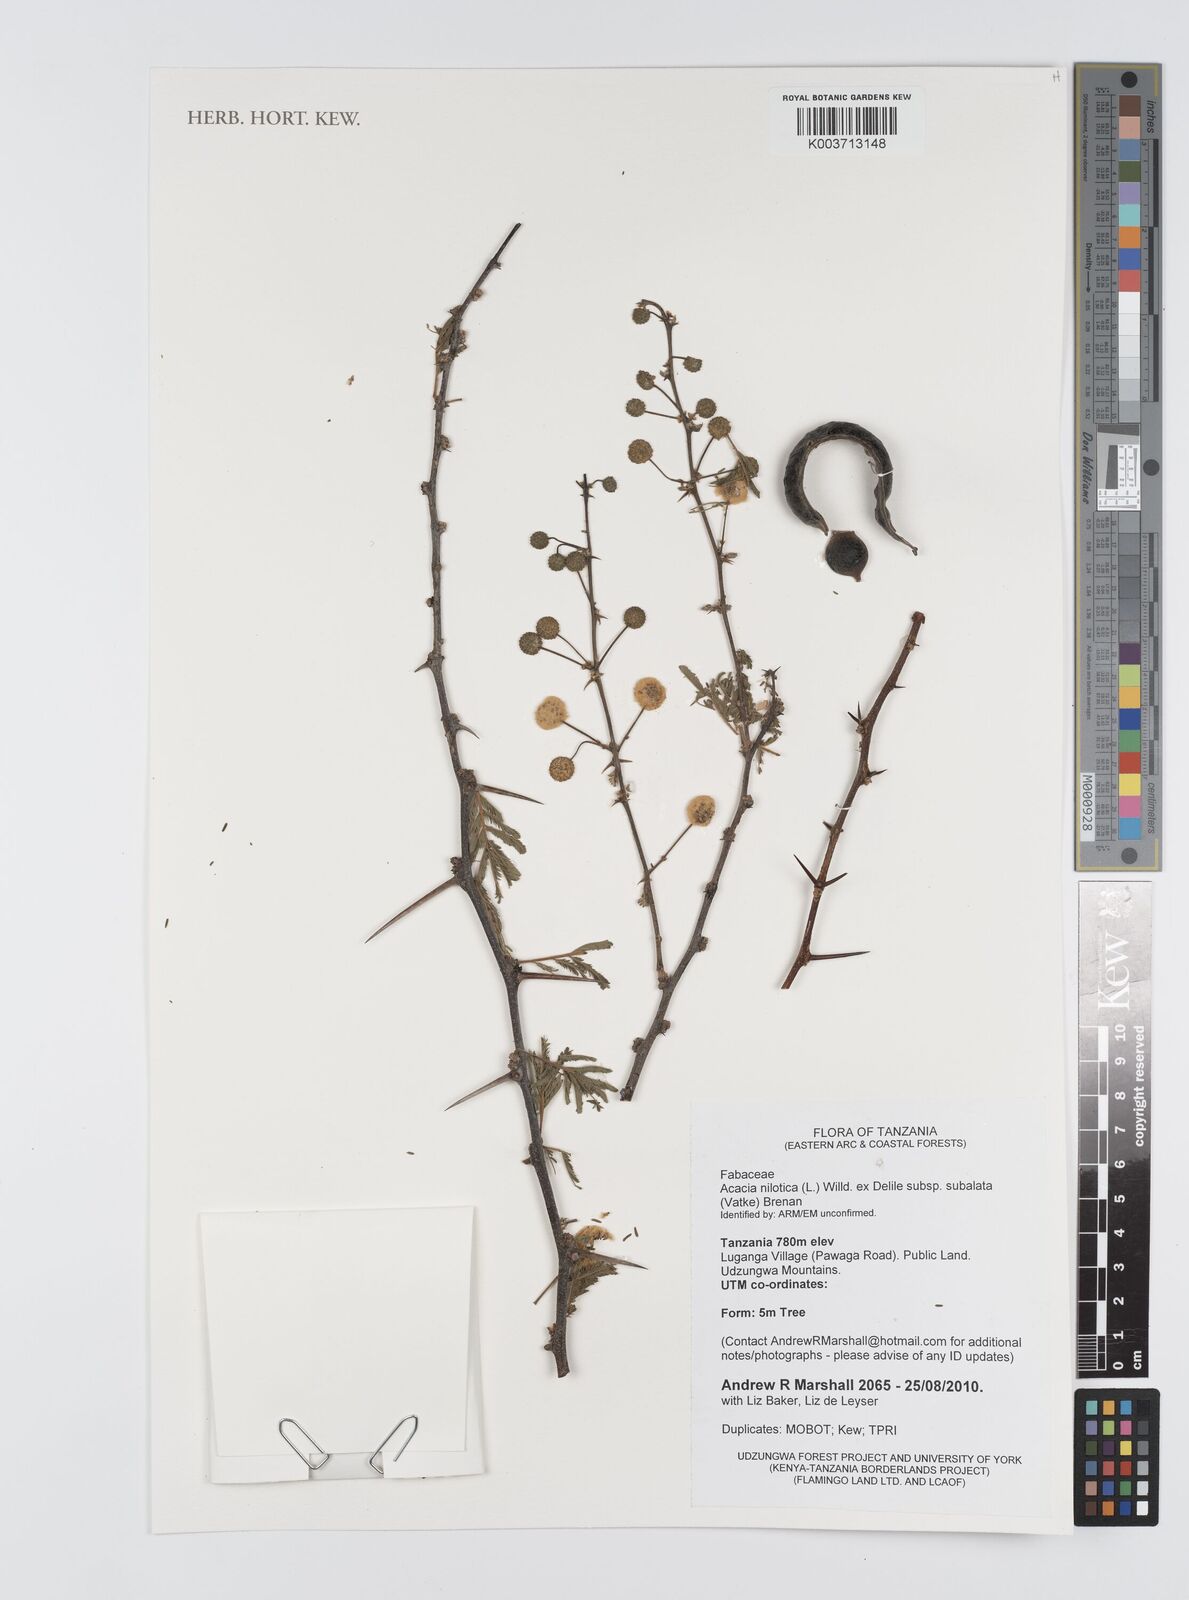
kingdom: Plantae
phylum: Tracheophyta
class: Magnoliopsida
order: Fabales
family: Fabaceae
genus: Vachellia
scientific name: Vachellia nilotica
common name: Arabic gumtree
